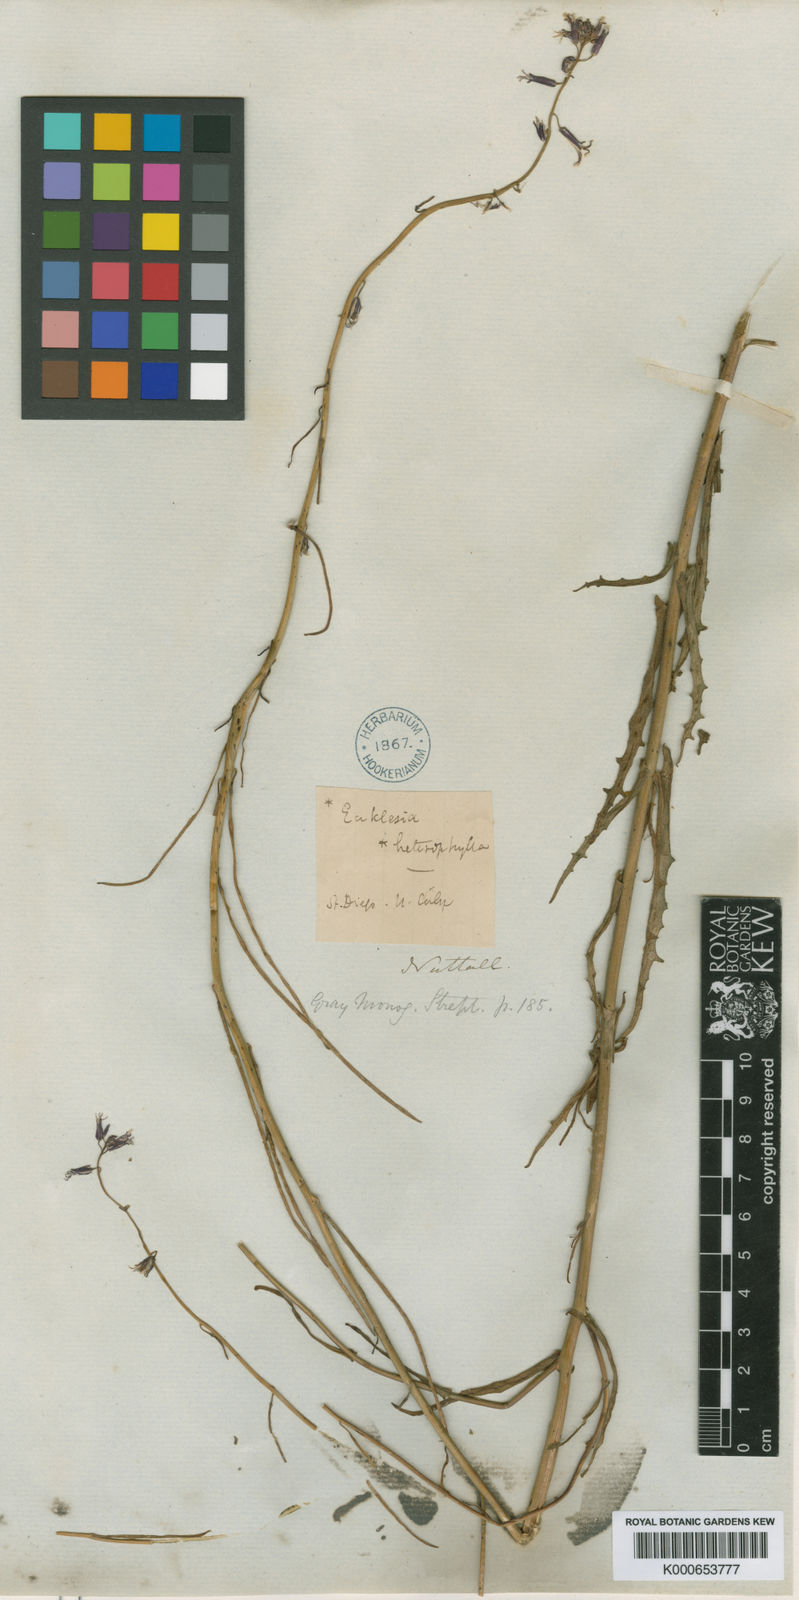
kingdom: Plantae
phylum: Tracheophyta
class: Magnoliopsida
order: Brassicales
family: Brassicaceae
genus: Streptanthus
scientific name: Streptanthus heterophyllus
